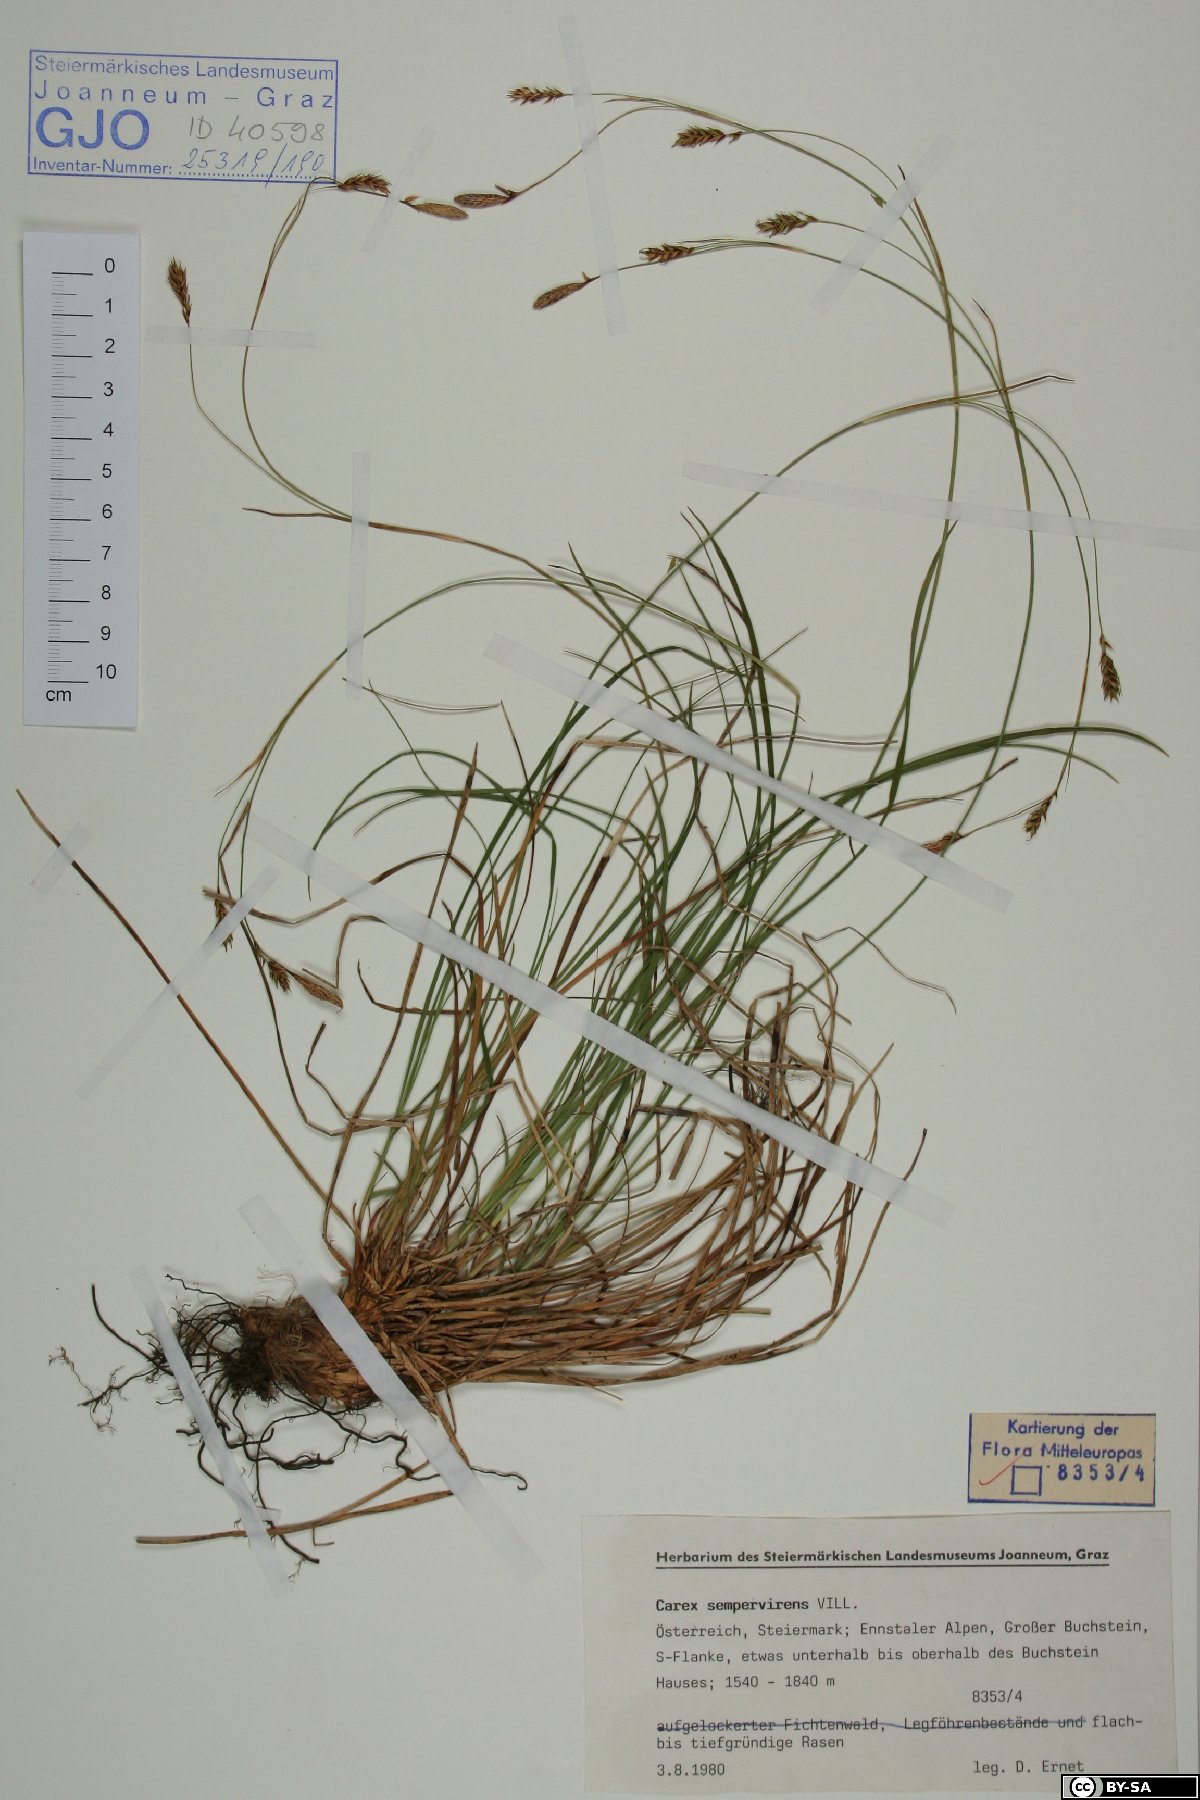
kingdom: Plantae
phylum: Tracheophyta
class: Liliopsida
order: Poales
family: Cyperaceae
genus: Carex
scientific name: Carex sempervirens
